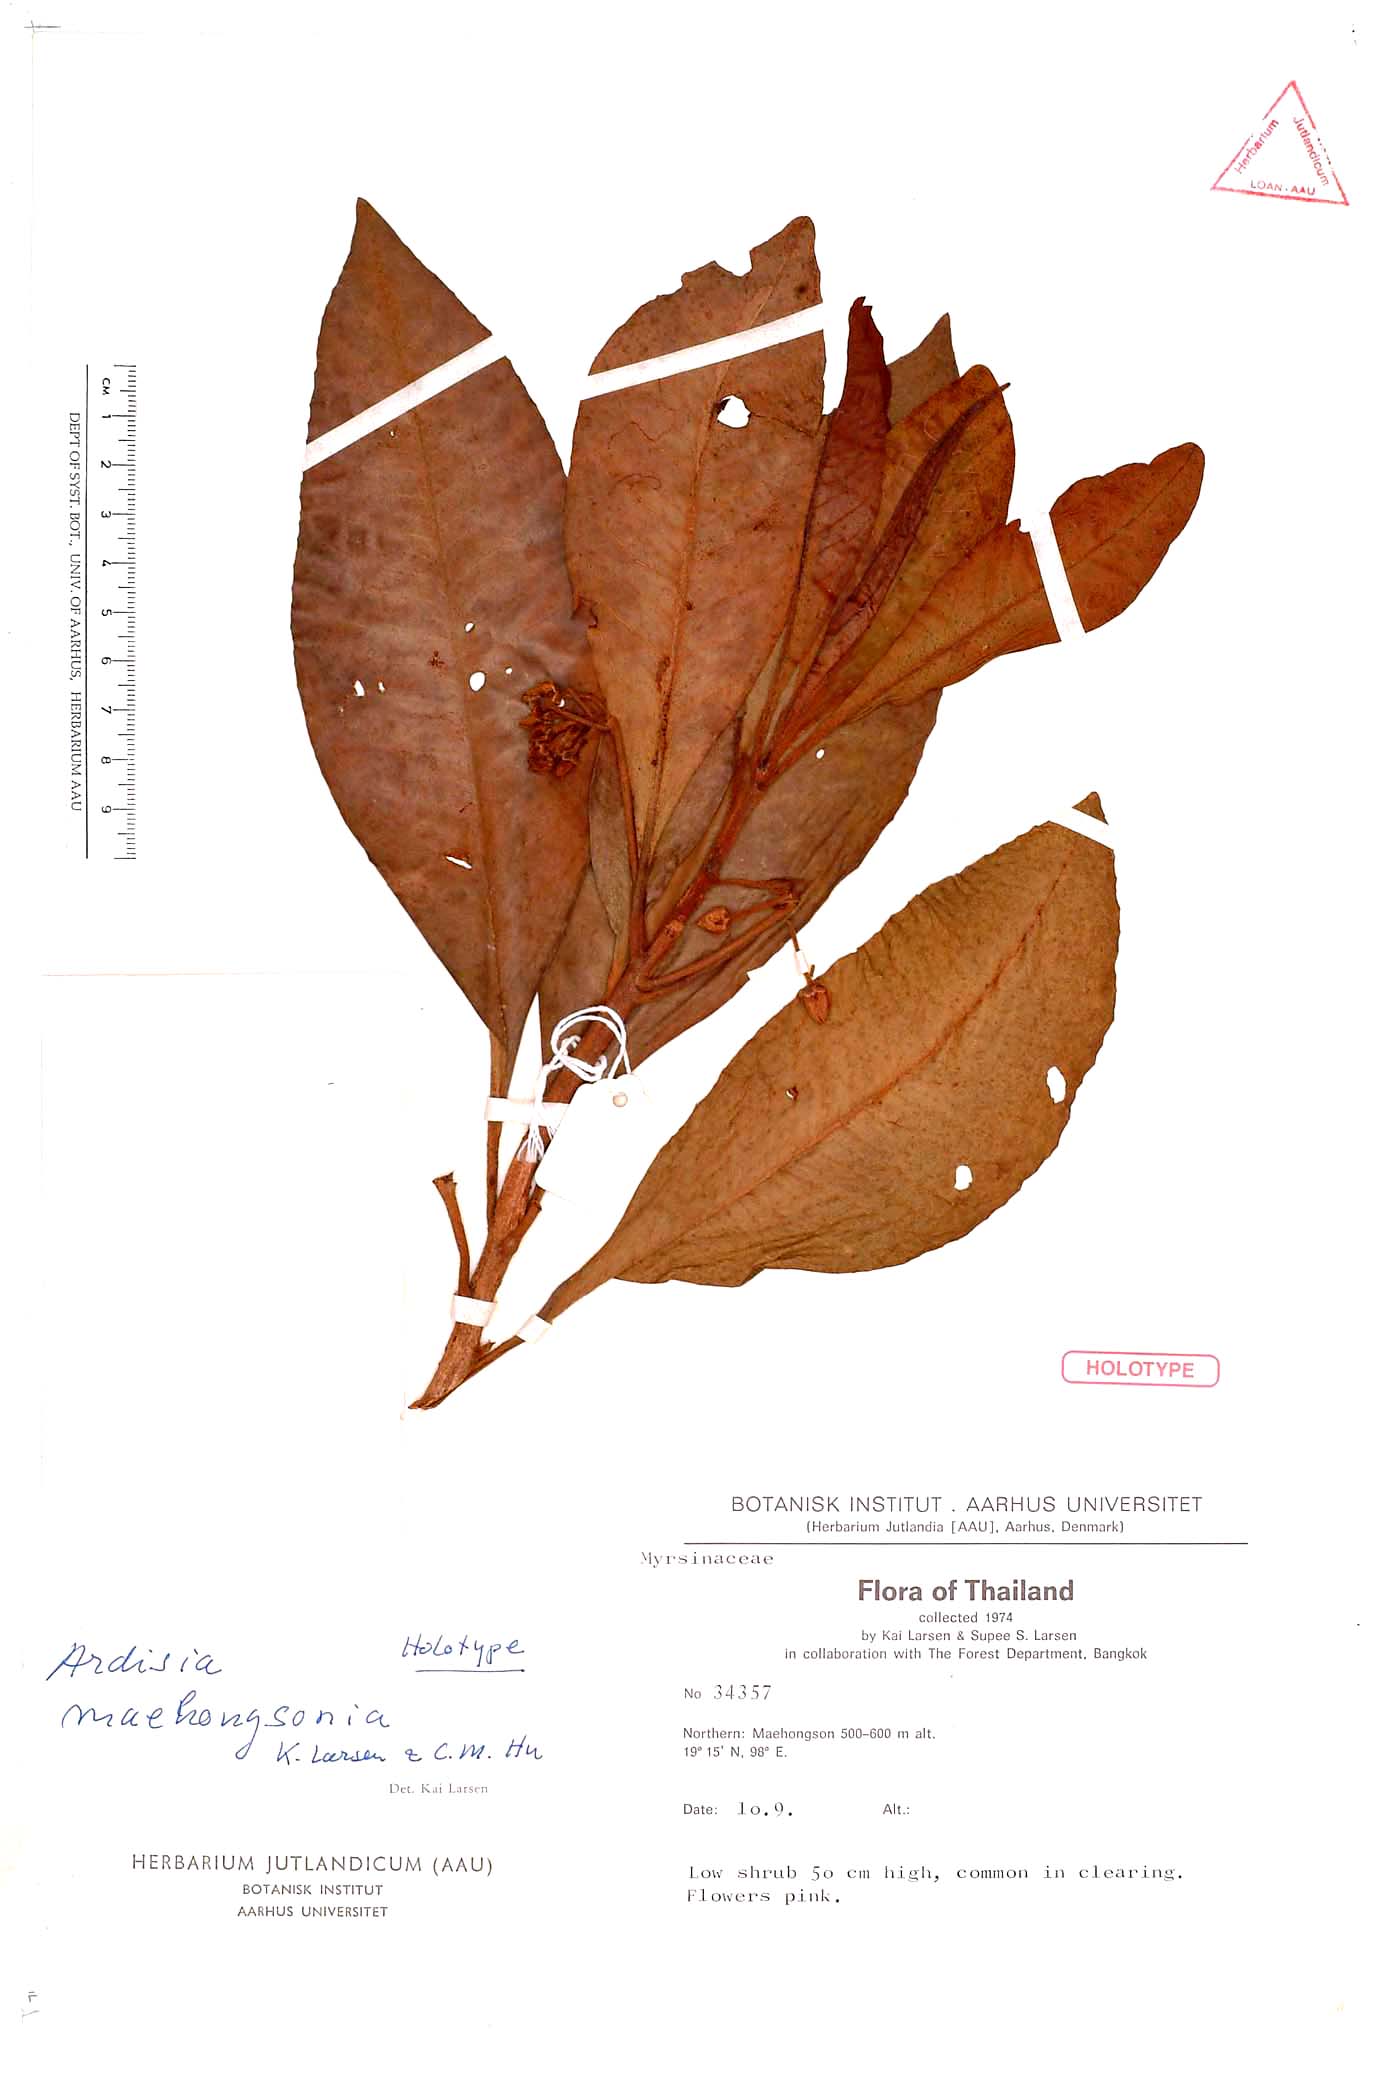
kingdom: Plantae
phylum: Tracheophyta
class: Magnoliopsida
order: Ericales
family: Primulaceae
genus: Ardisia
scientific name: Ardisia maehongsonia
